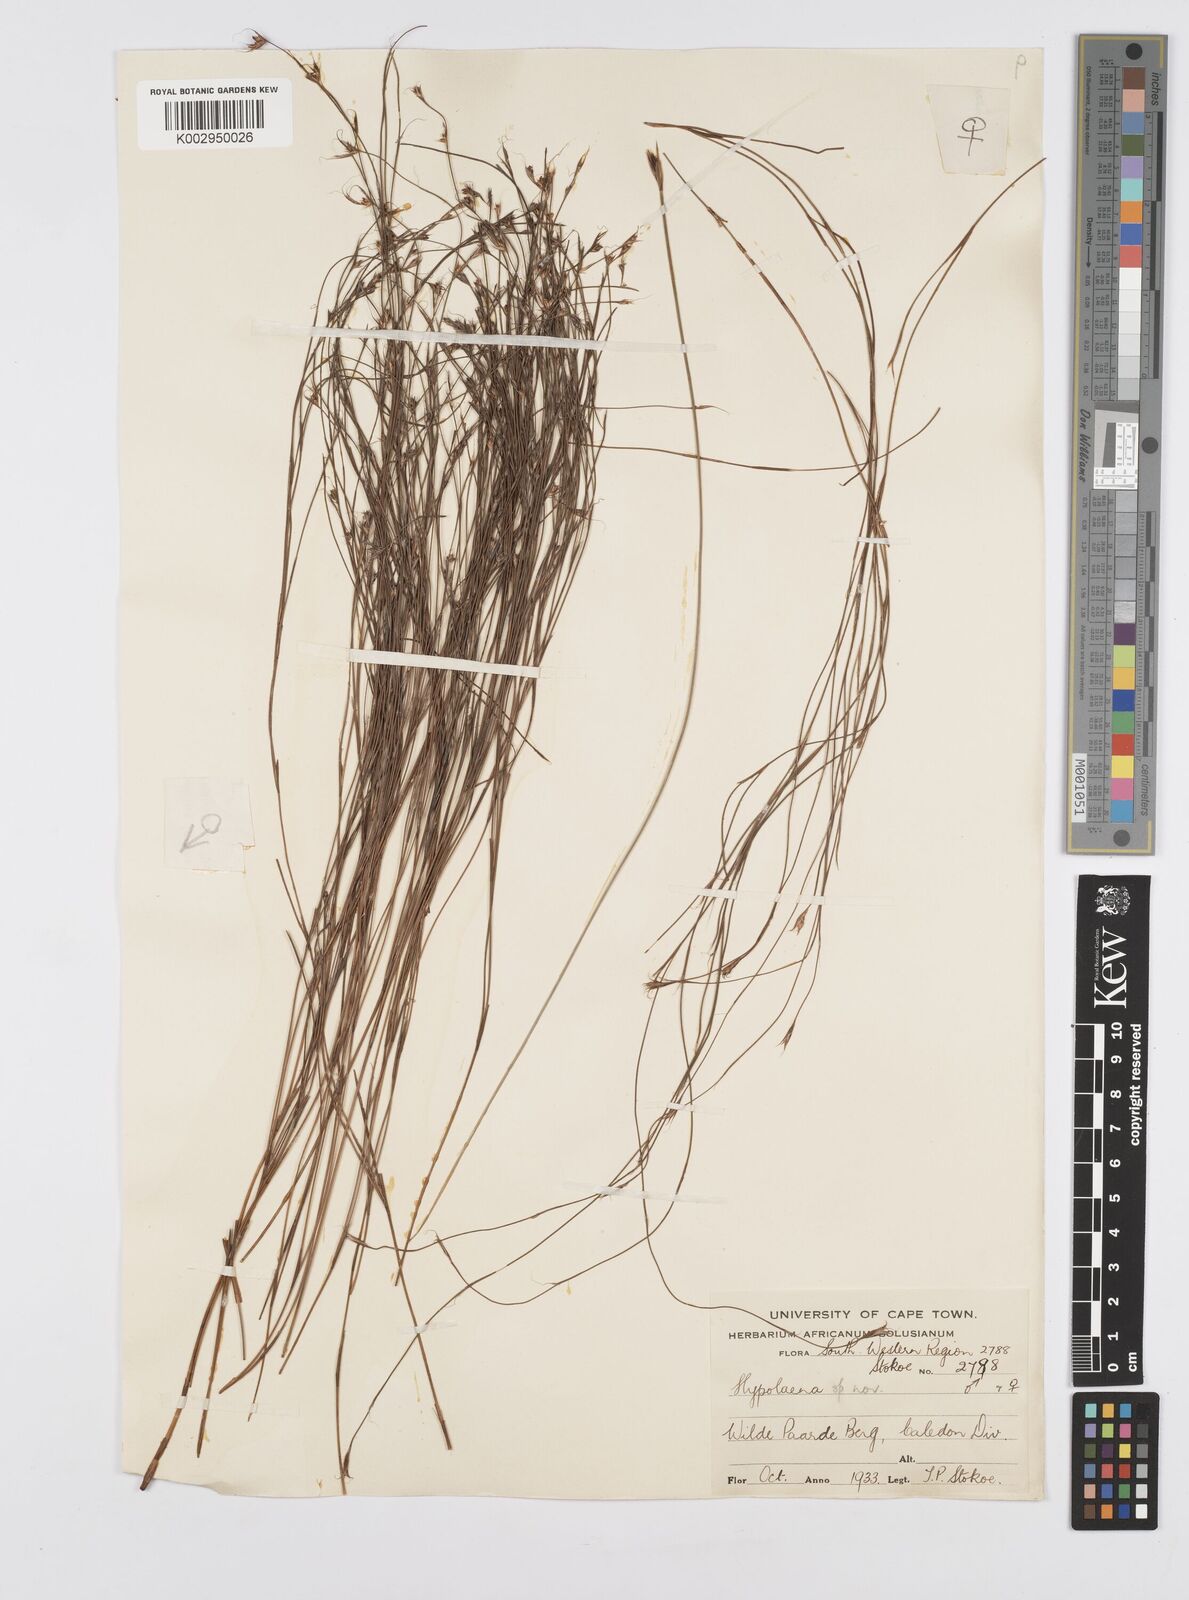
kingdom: Plantae
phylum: Tracheophyta
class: Liliopsida
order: Poales
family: Restionaceae
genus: Anthochortus
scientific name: Anthochortus
